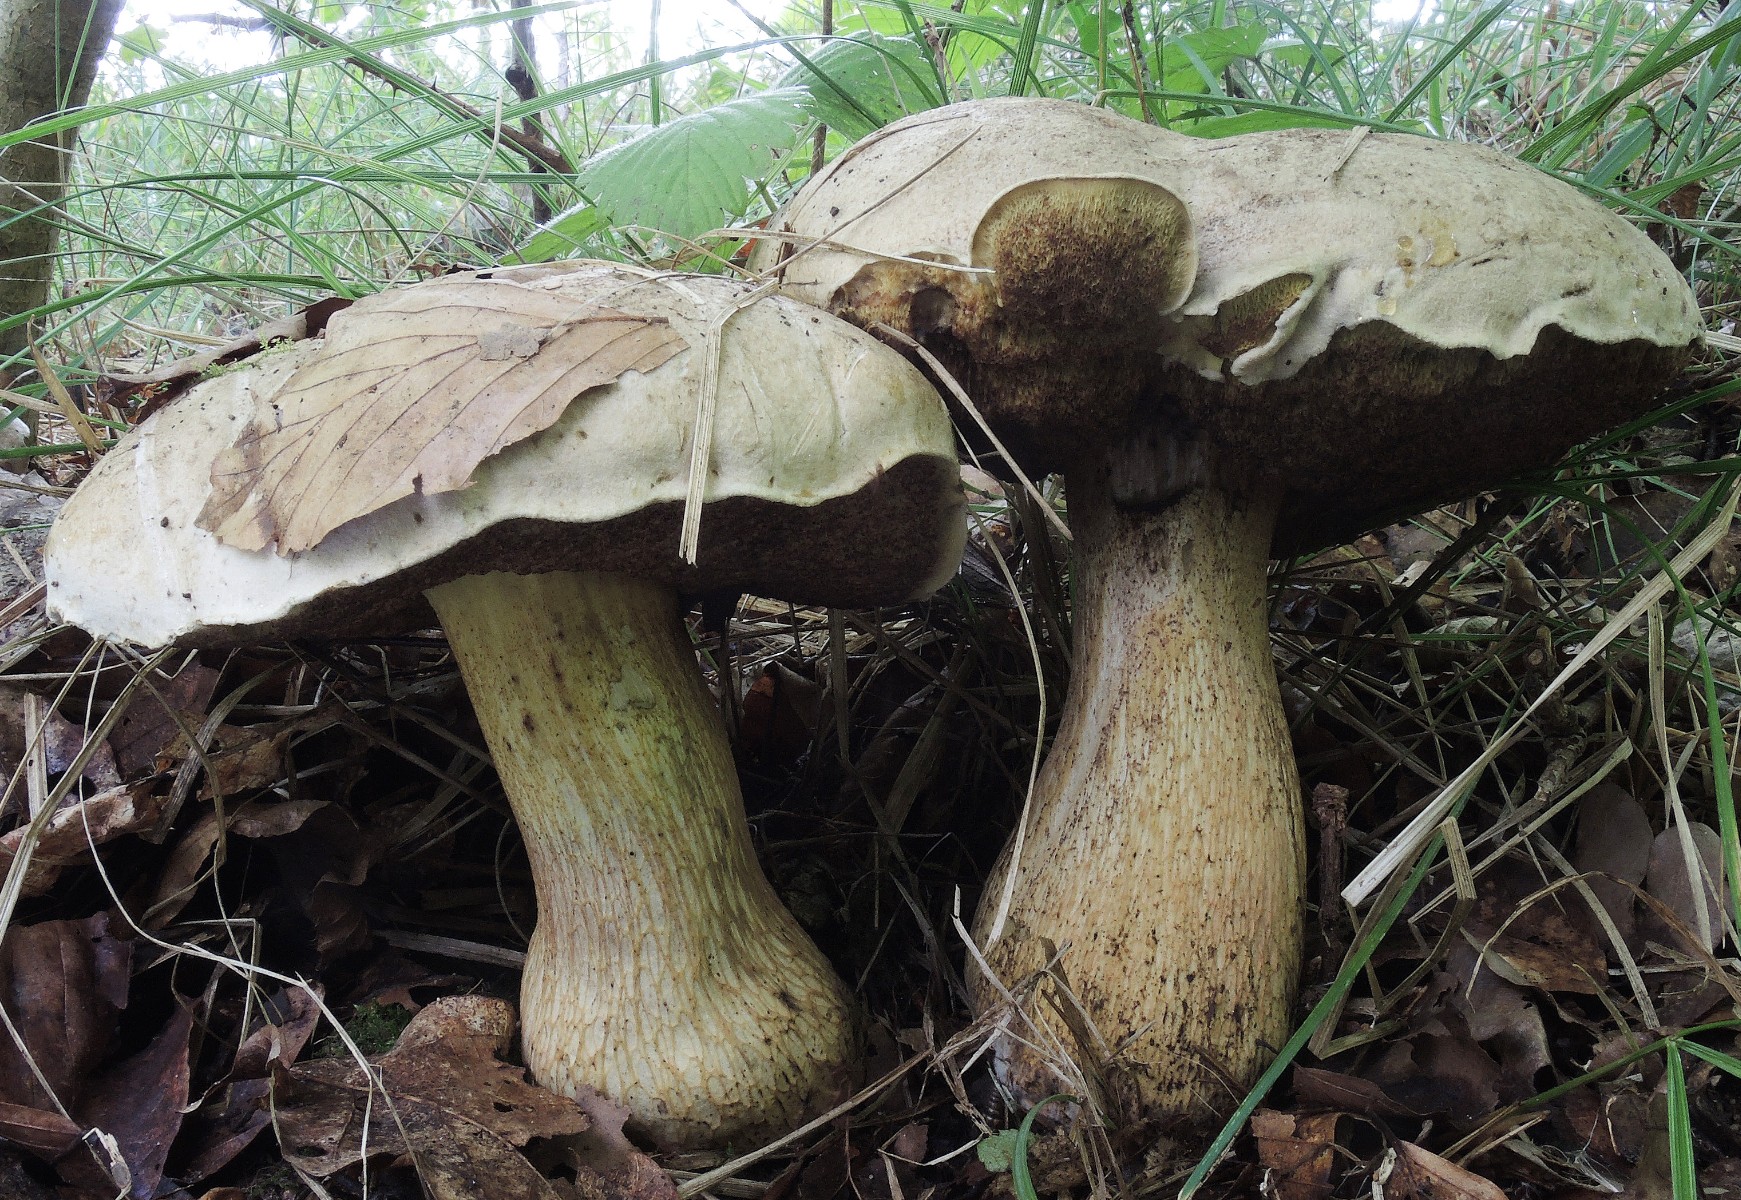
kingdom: Fungi
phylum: Basidiomycota
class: Agaricomycetes
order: Boletales
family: Boletaceae
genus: Caloboletus
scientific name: Caloboletus kluzakii
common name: rødmosset rørhat
